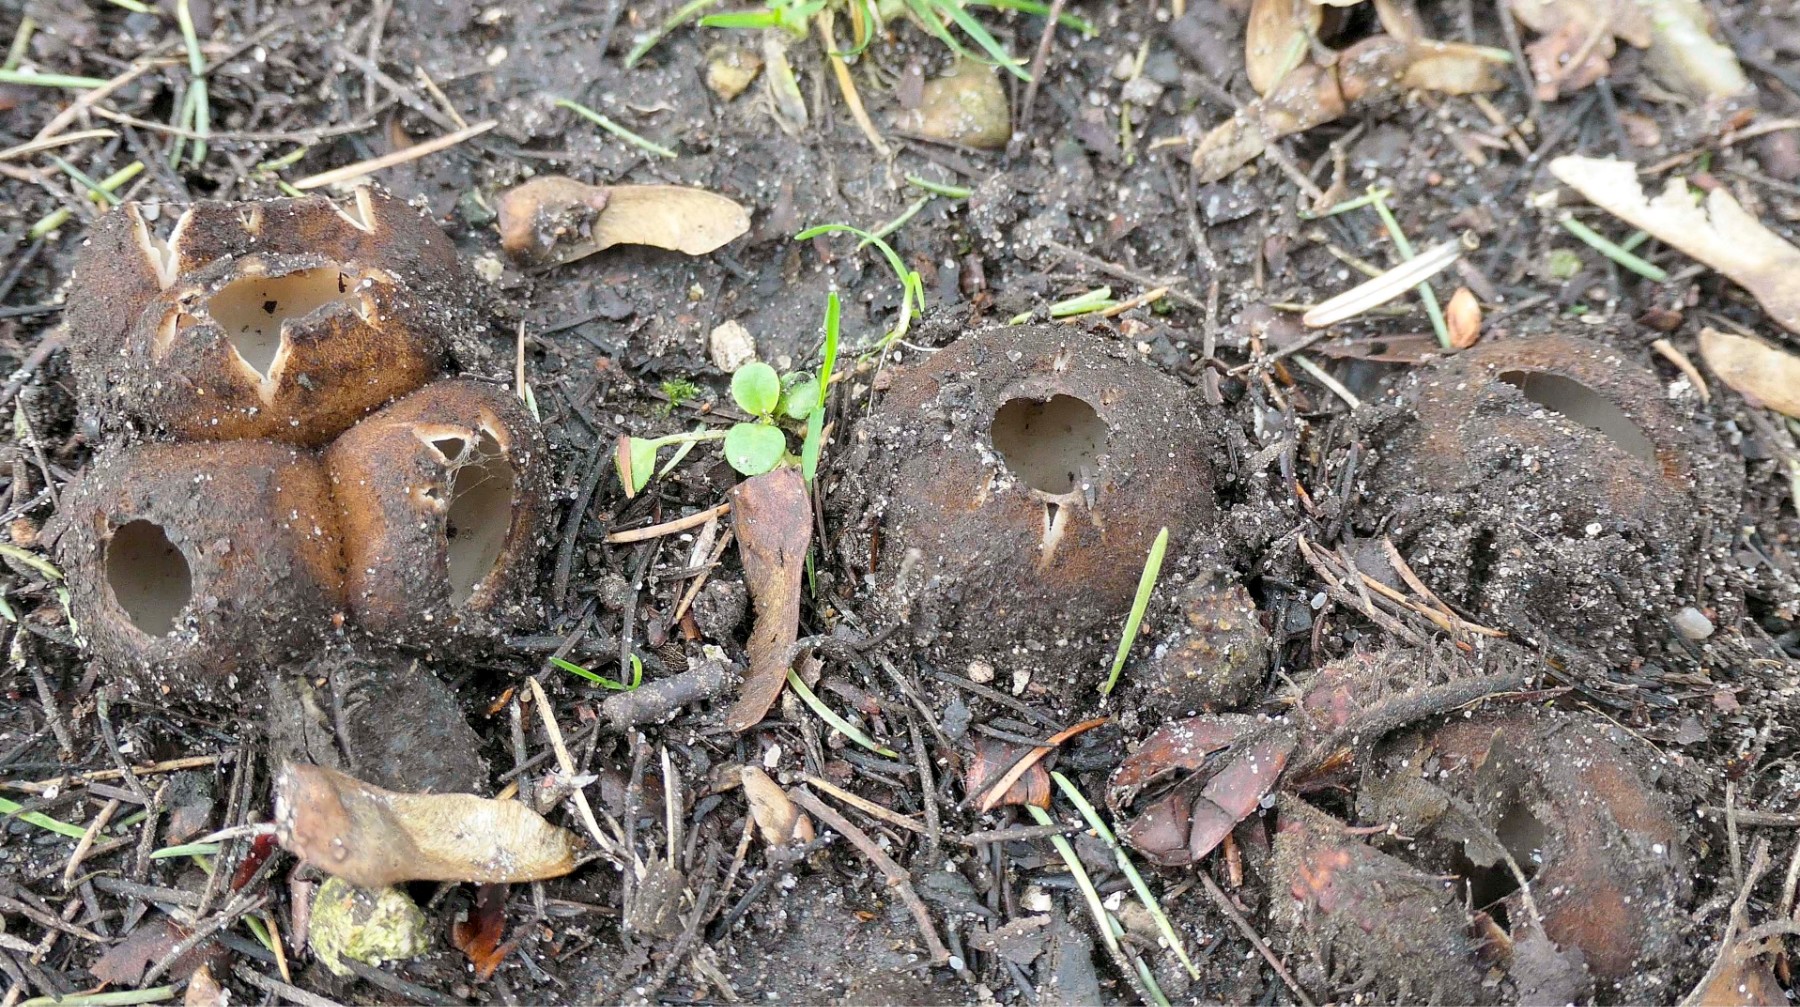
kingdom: Fungi
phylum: Ascomycota
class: Pezizomycetes
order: Pezizales
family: Pyronemataceae
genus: Geopora
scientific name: Geopora sumneriana
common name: vår-jordbæger
